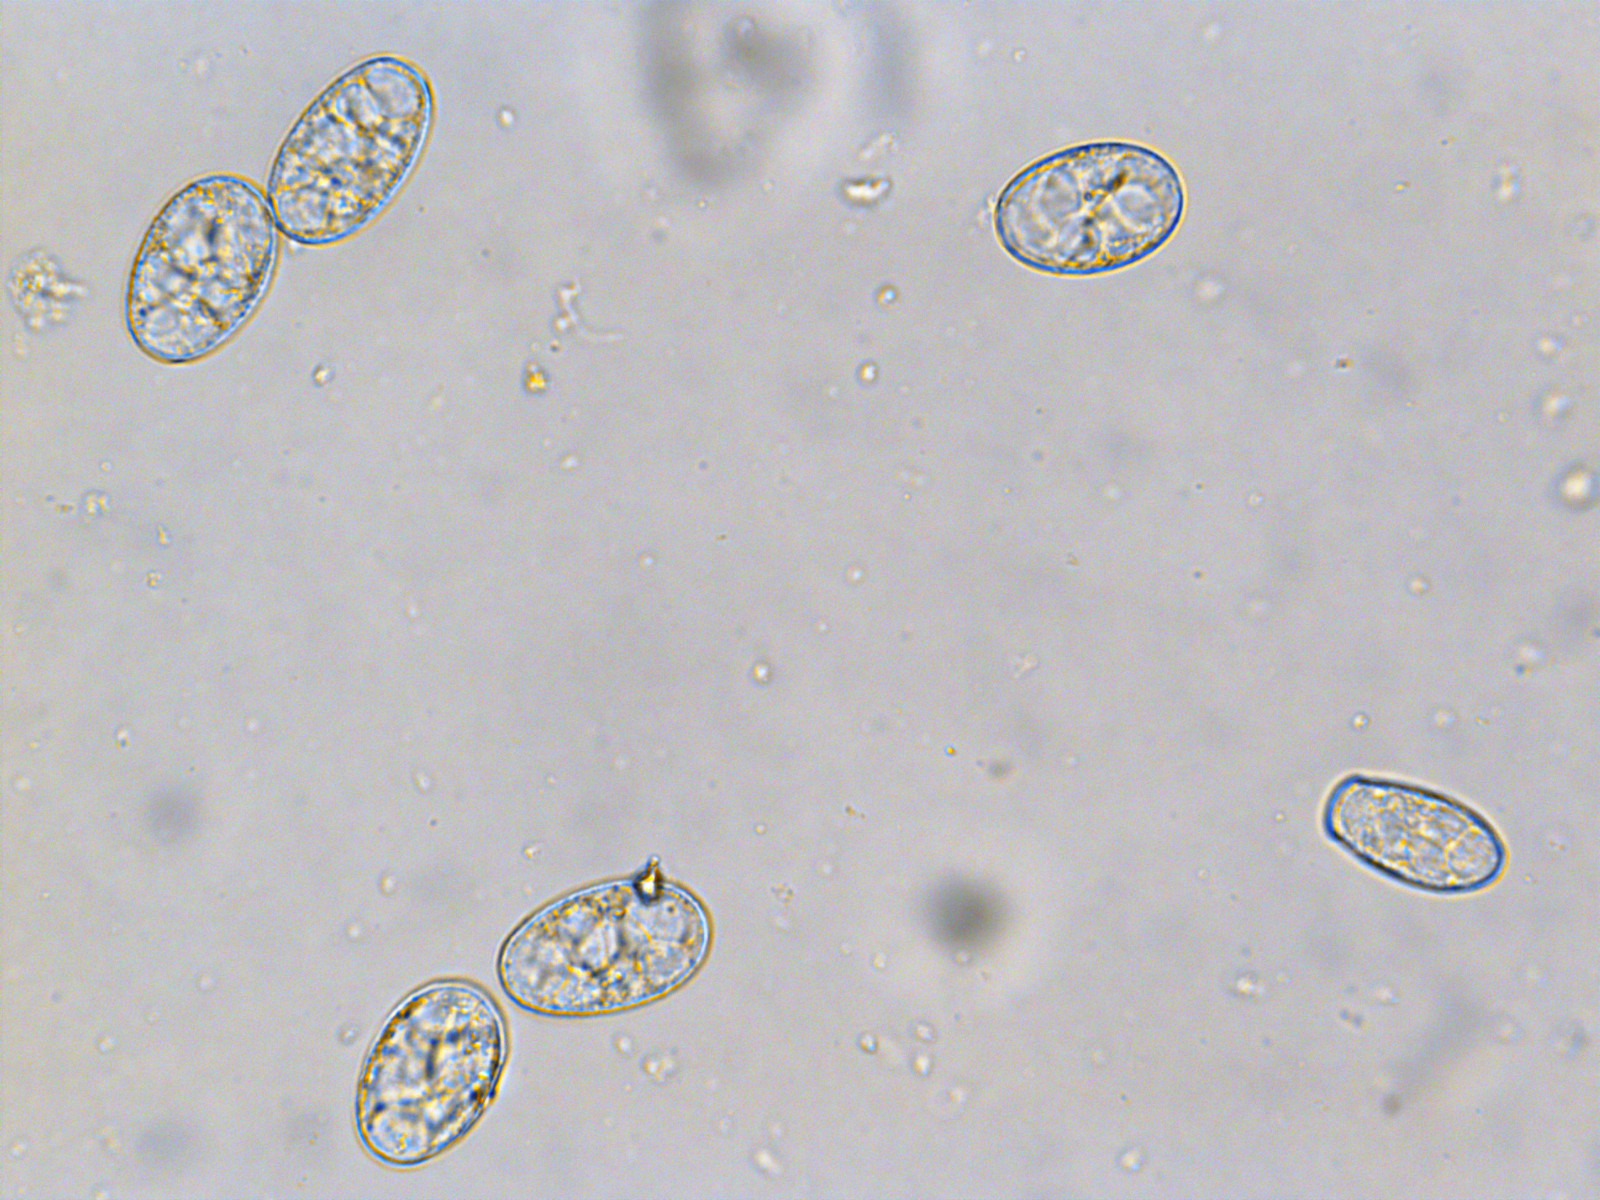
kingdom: Fungi
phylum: Ascomycota
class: Leotiomycetes
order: Helotiales
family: Erysiphaceae
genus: Erysiphe
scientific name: Erysiphe
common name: meldug
